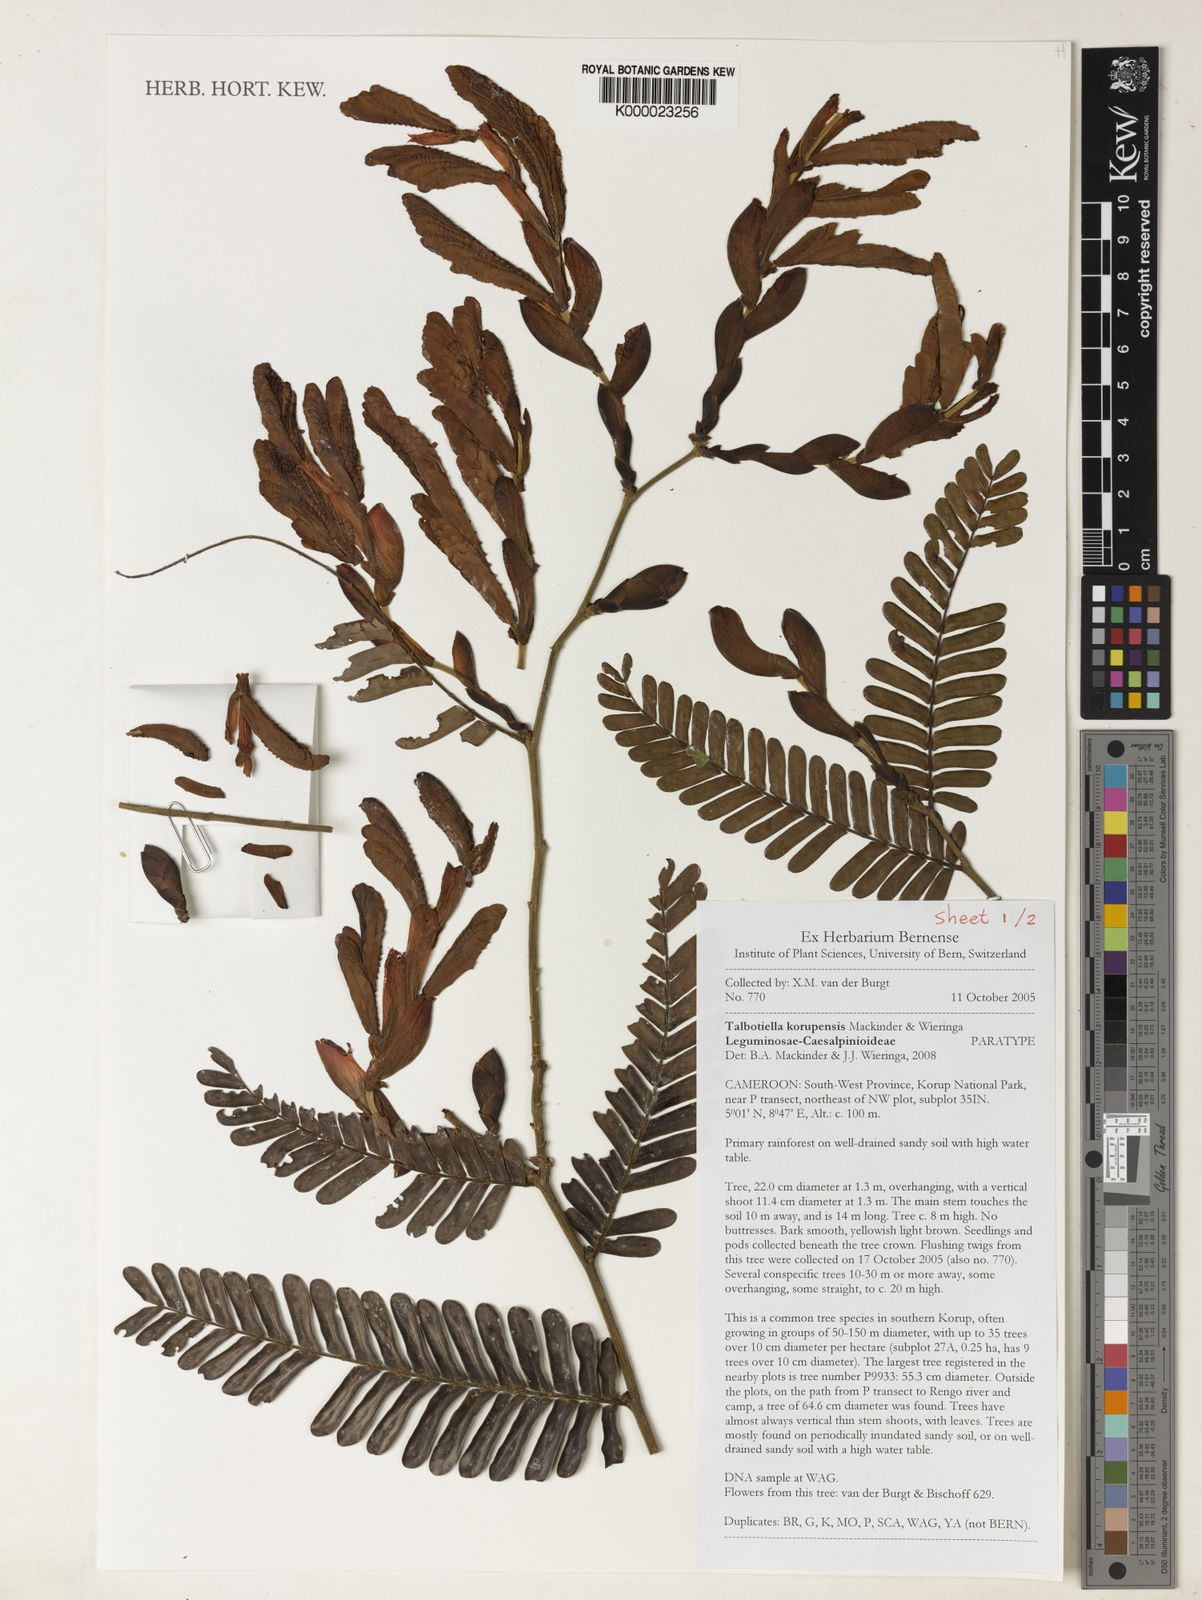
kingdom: Plantae
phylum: Tracheophyta
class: Magnoliopsida
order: Fabales
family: Fabaceae
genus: Talbotiella
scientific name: Talbotiella korupensis
